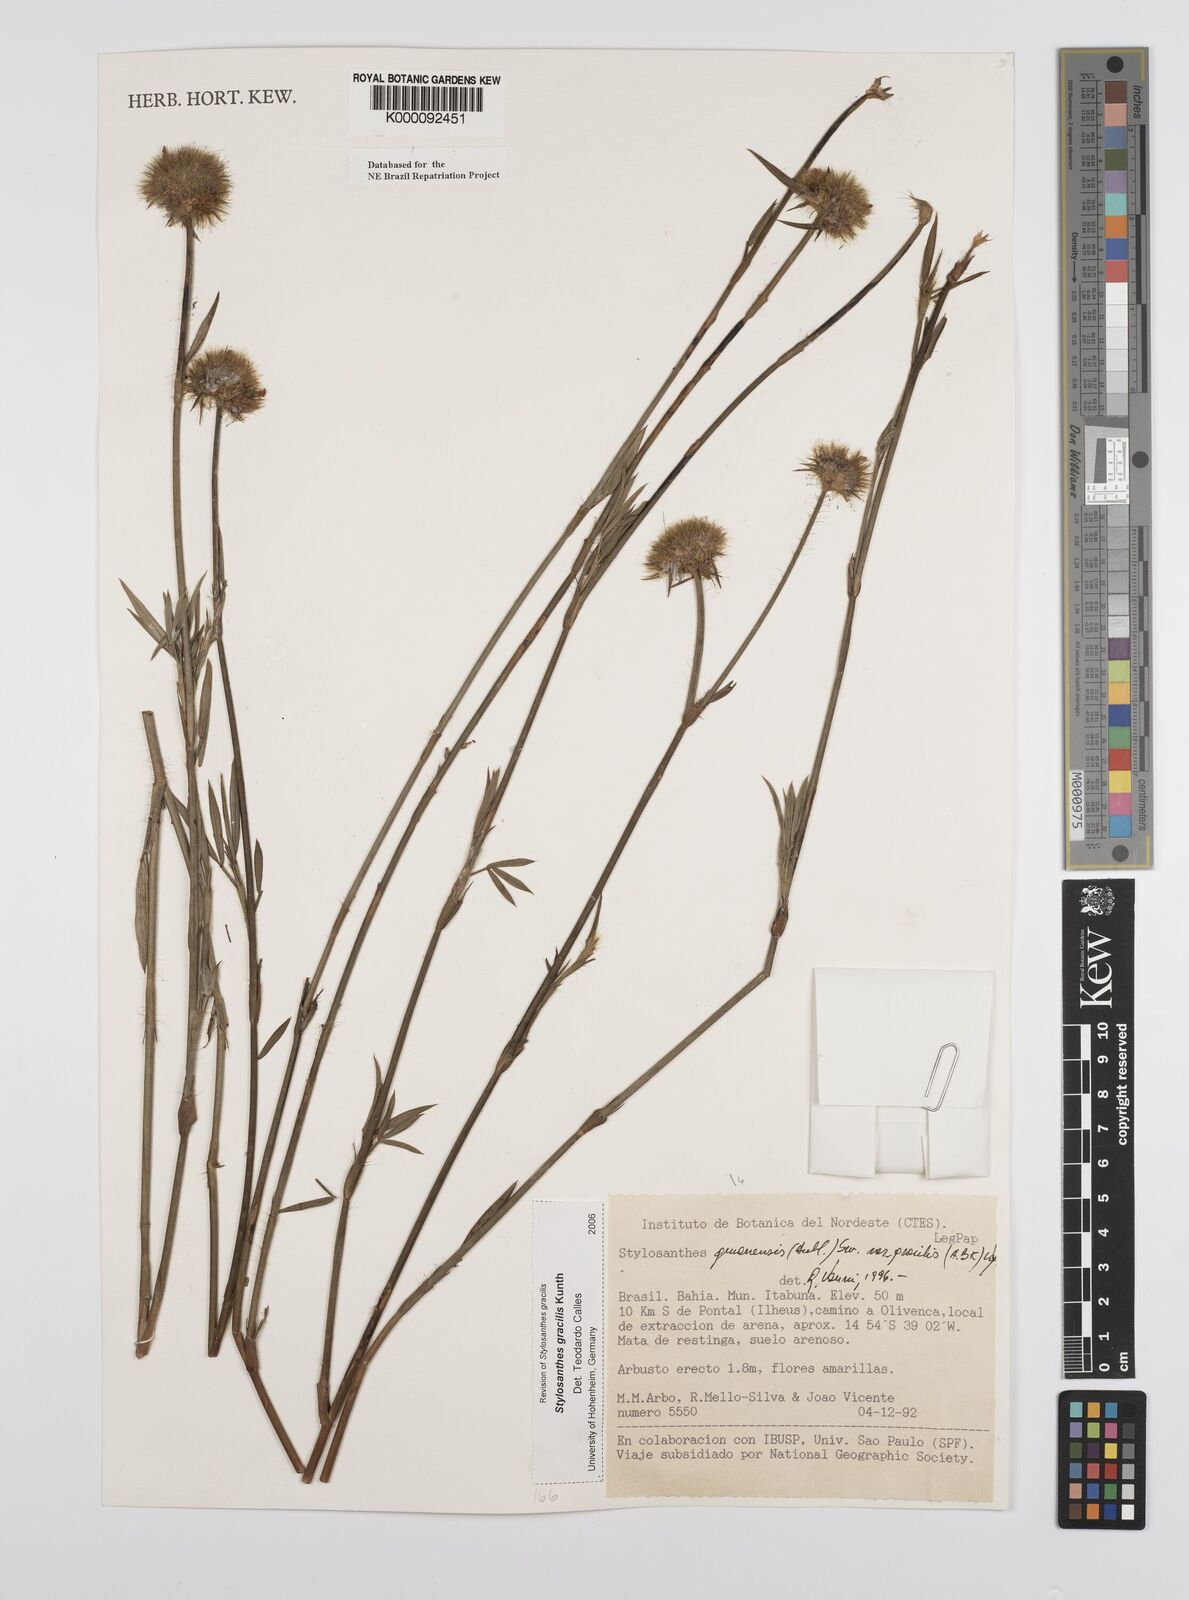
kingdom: Plantae
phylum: Tracheophyta
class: Magnoliopsida
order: Fabales
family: Fabaceae
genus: Stylosanthes
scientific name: Stylosanthes guianensis
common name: Pencil flower
